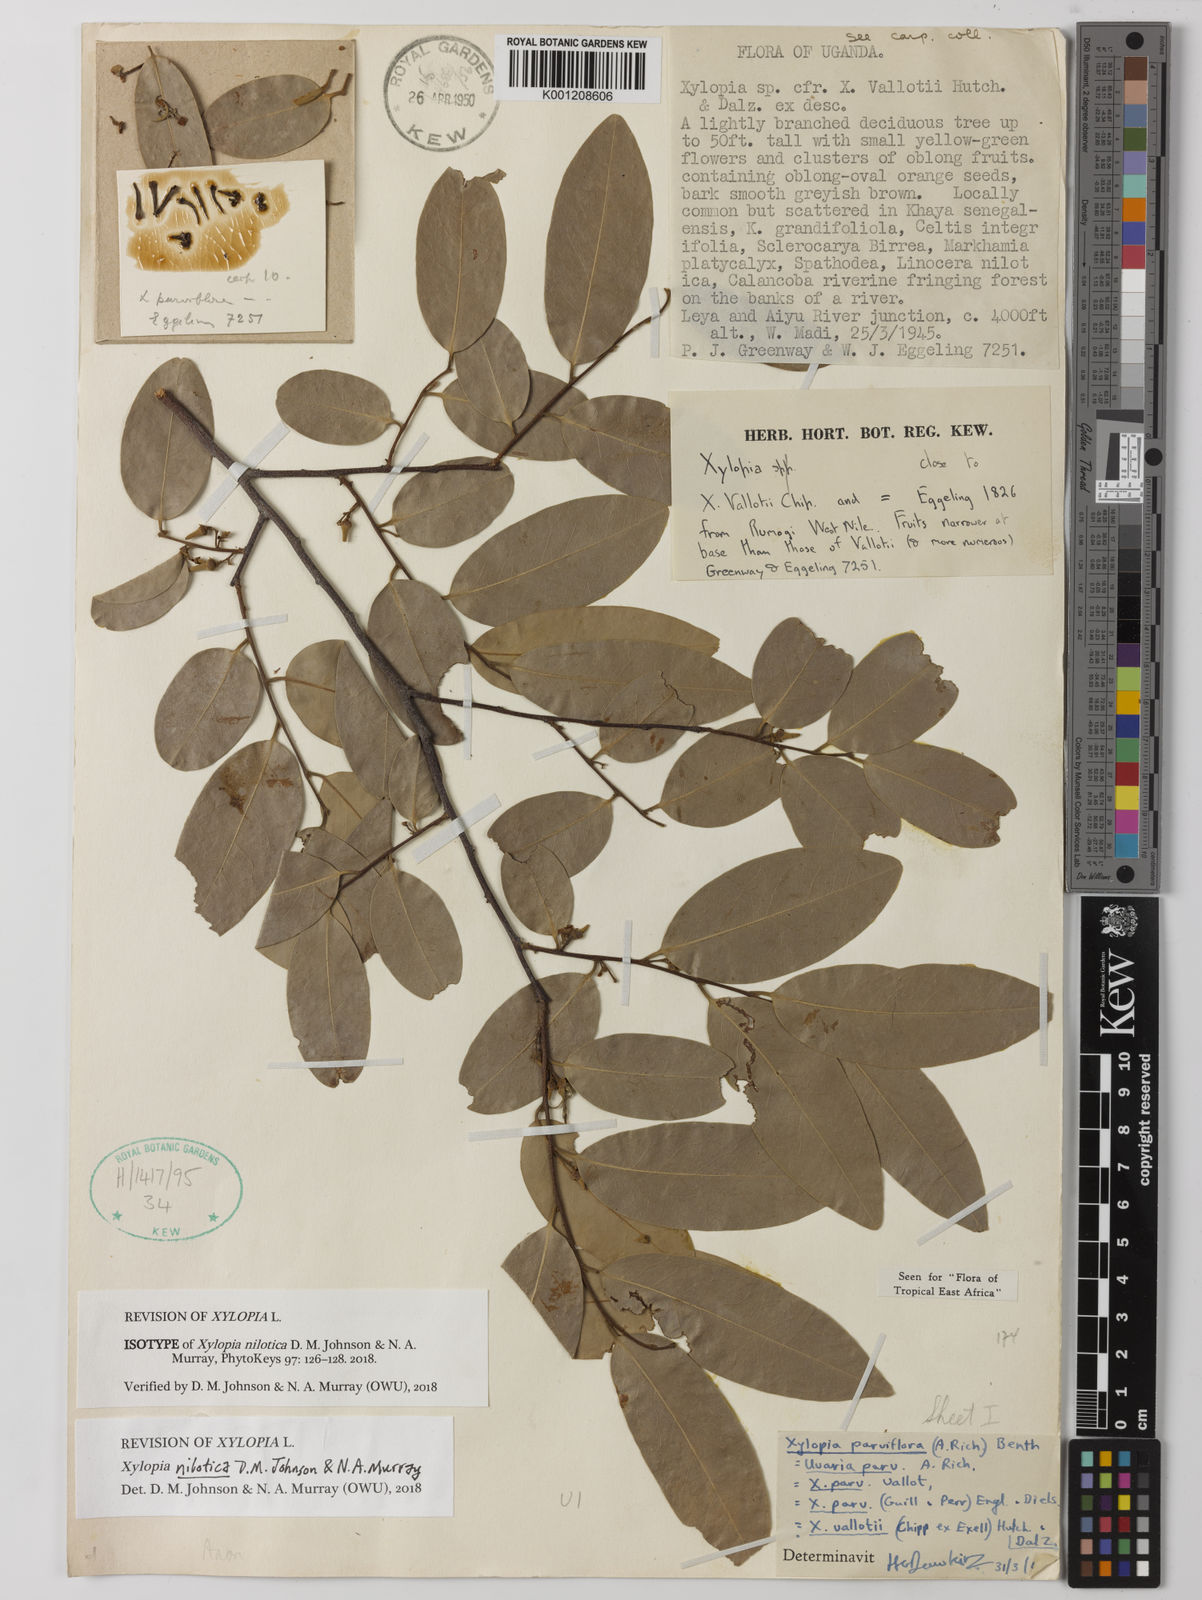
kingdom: Plantae
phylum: Tracheophyta
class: Magnoliopsida
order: Magnoliales
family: Annonaceae
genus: Xylopia
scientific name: Xylopia nilotica
